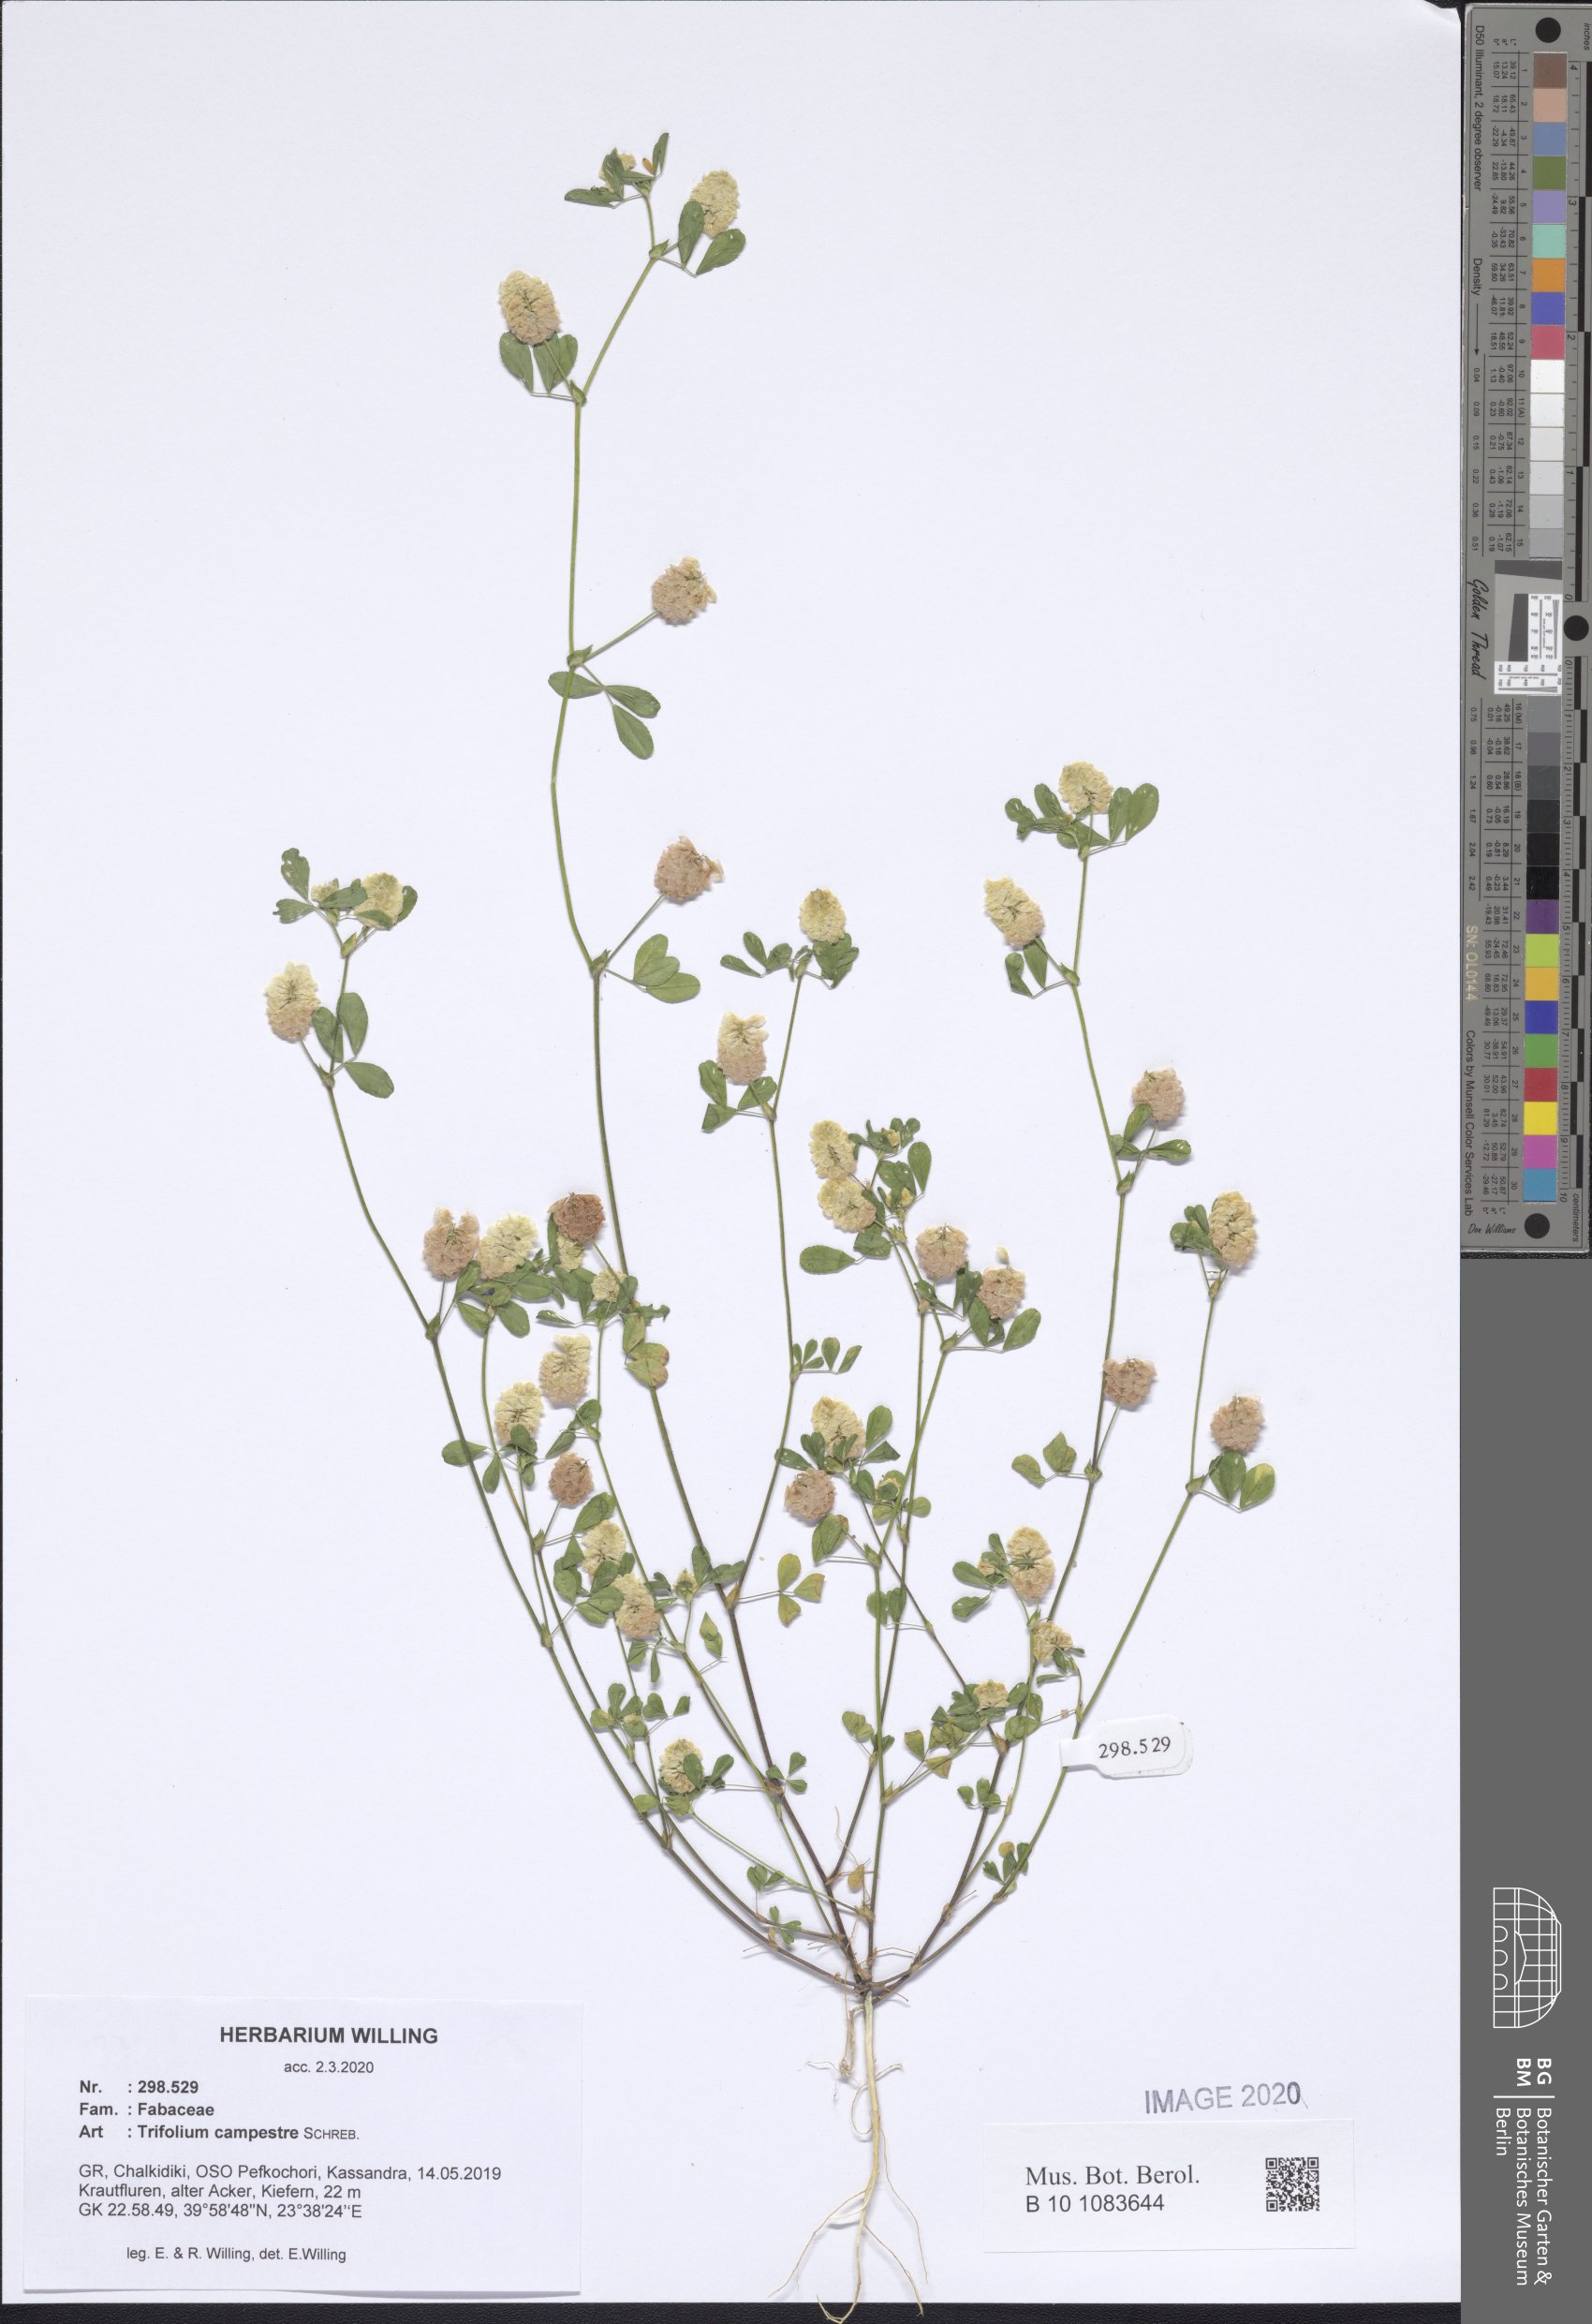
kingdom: Plantae
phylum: Tracheophyta
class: Magnoliopsida
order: Fabales
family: Fabaceae
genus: Trifolium
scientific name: Trifolium campestre
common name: Field clover
